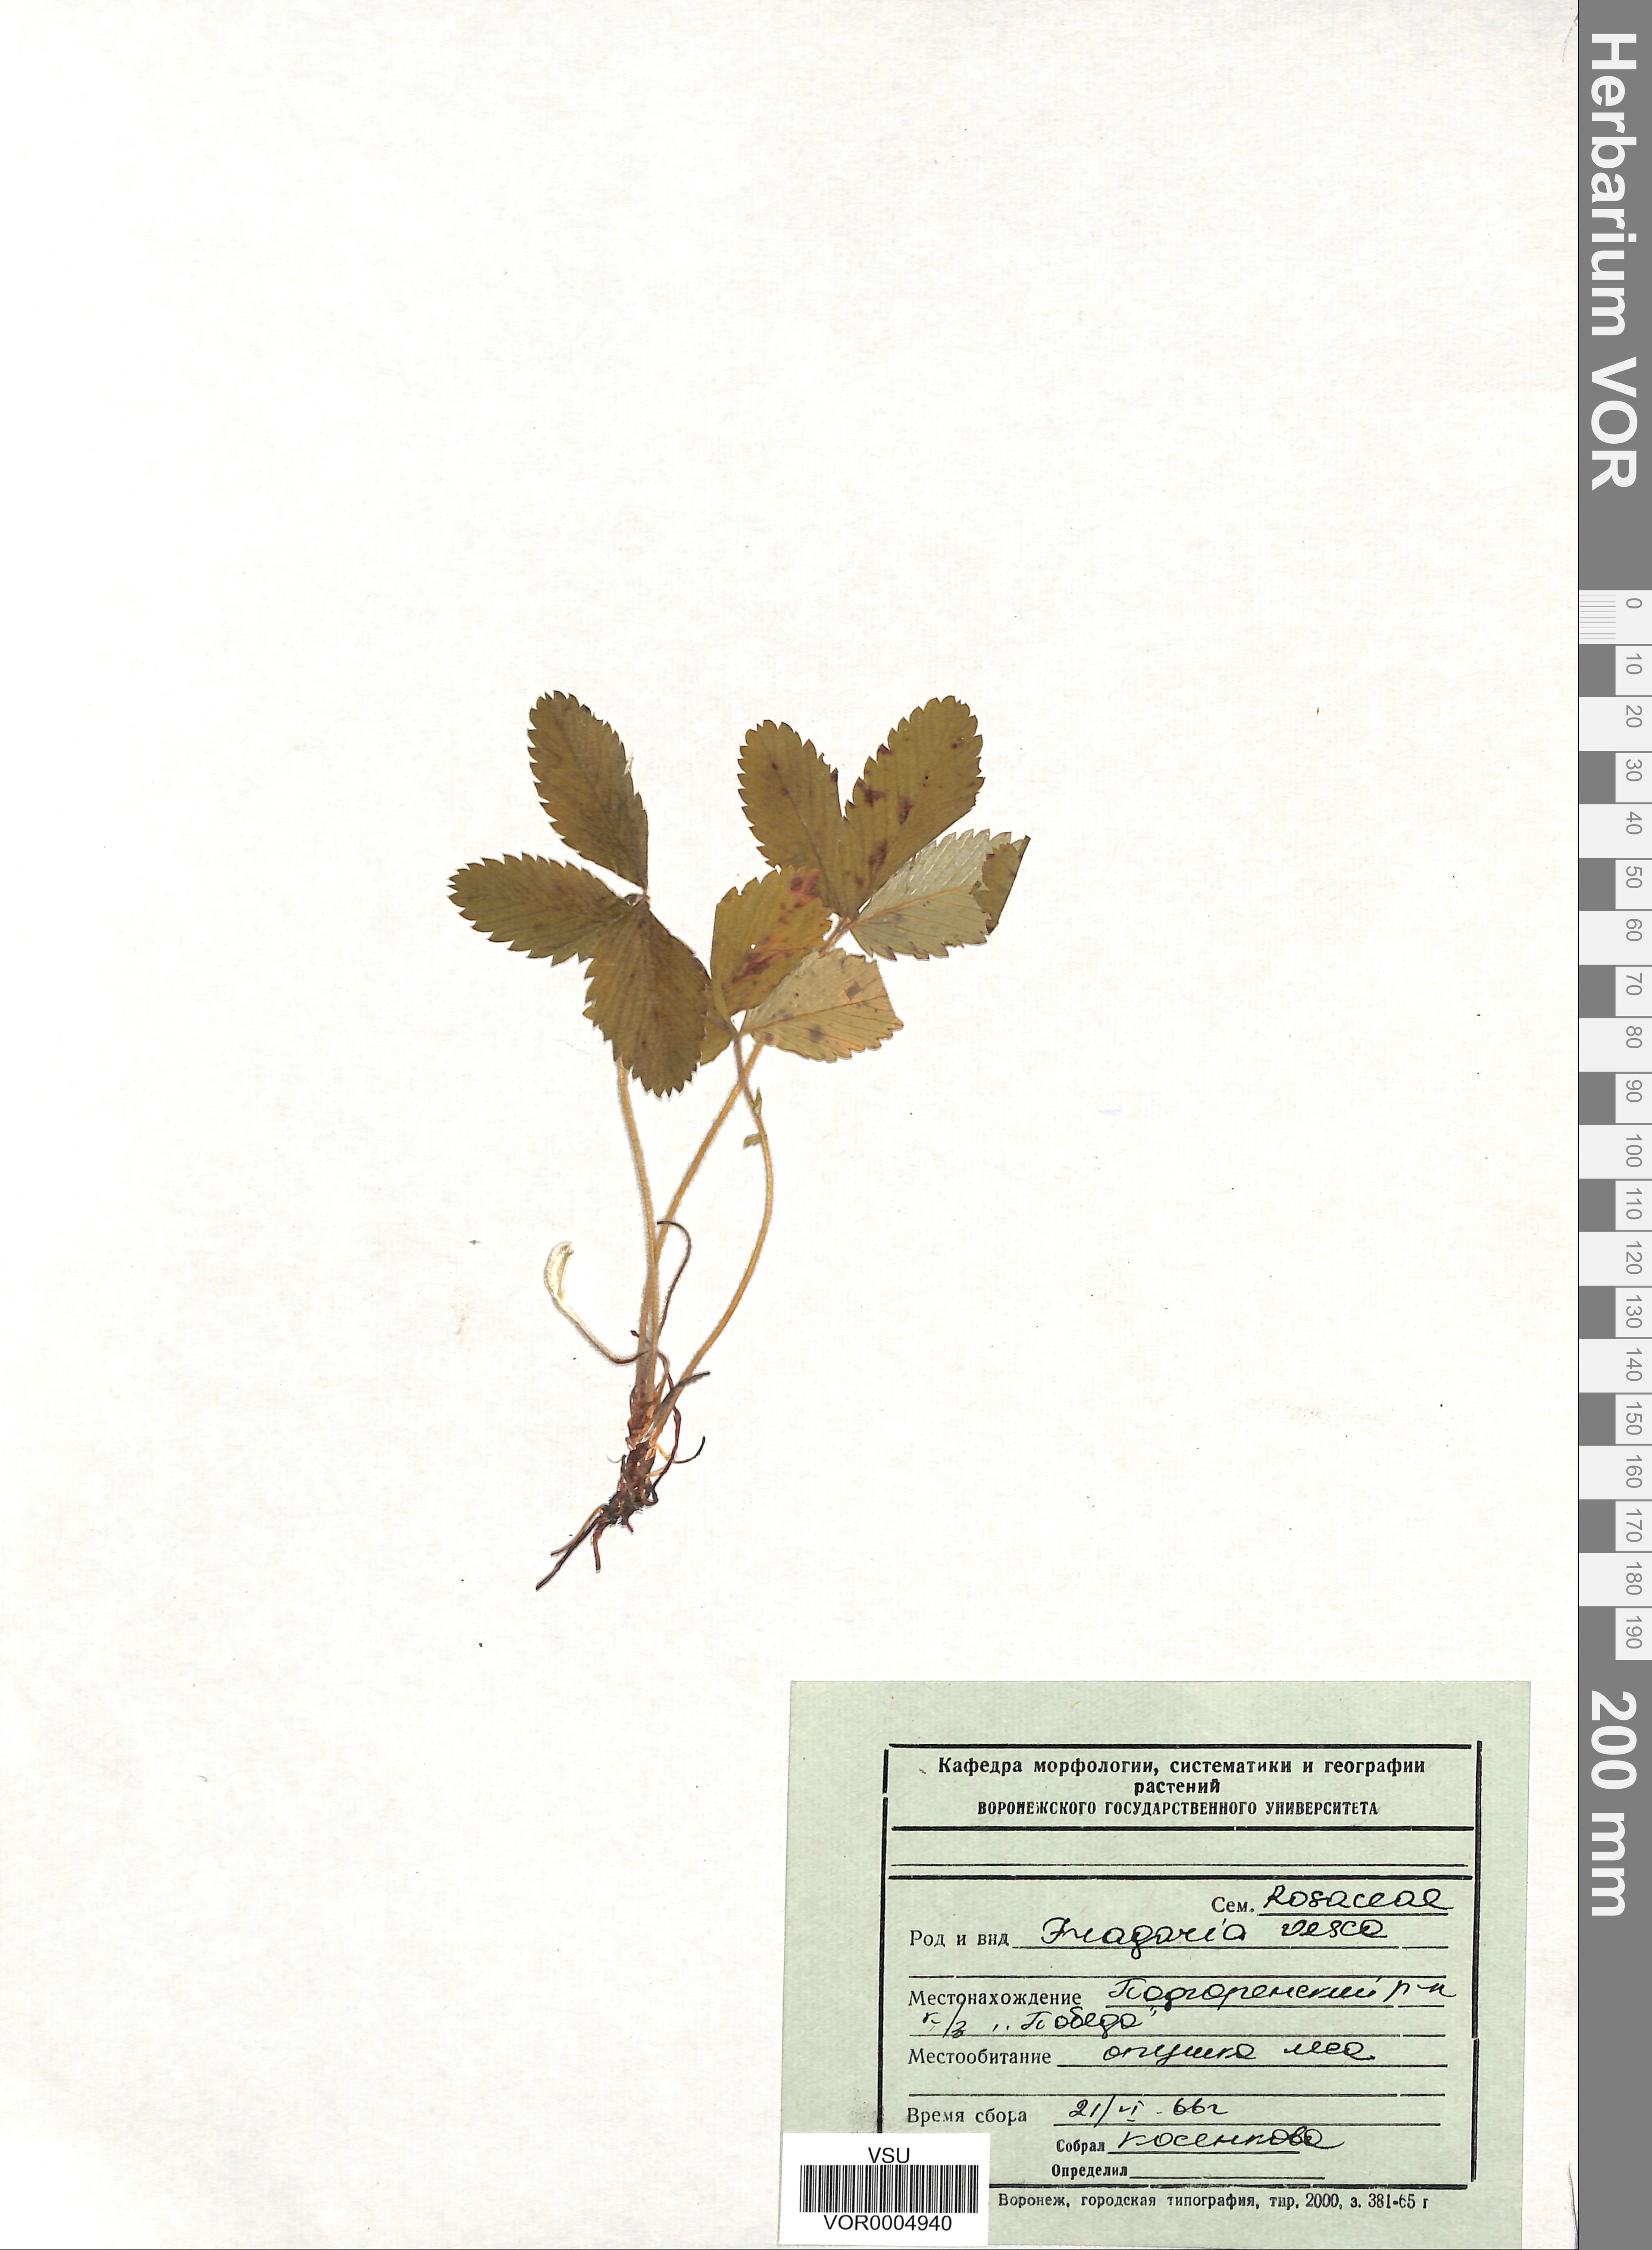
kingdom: Plantae
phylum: Tracheophyta
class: Magnoliopsida
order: Rosales
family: Rosaceae
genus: Fragaria
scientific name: Fragaria vesca
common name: Wild strawberry
